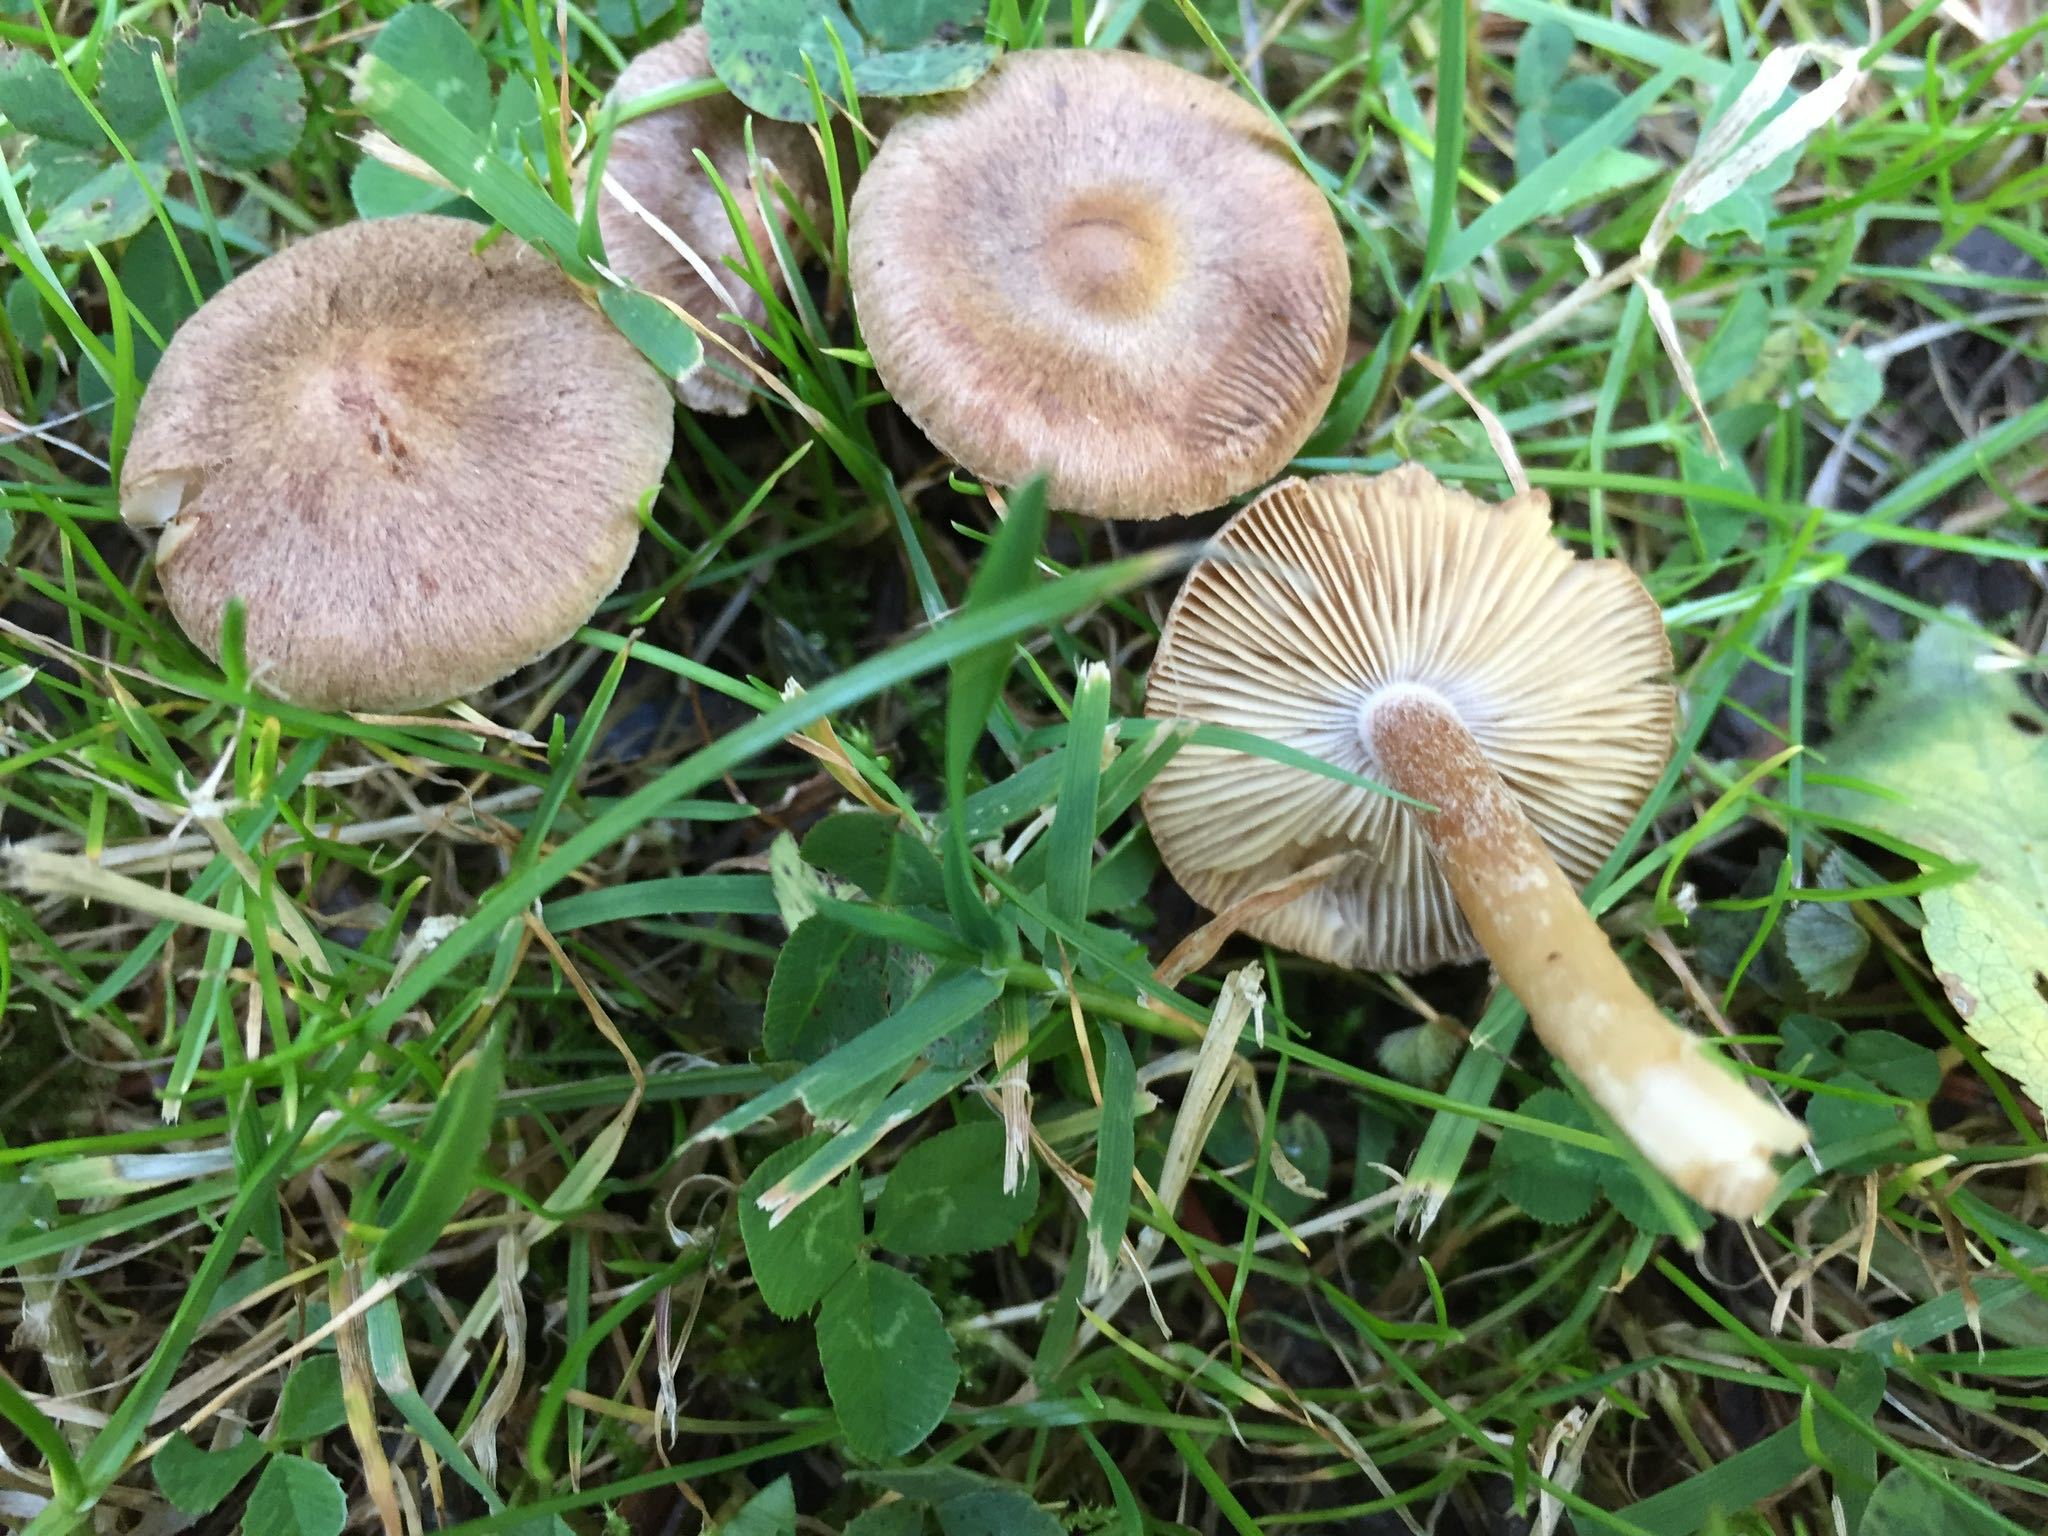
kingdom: Fungi
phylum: Basidiomycota
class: Agaricomycetes
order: Agaricales
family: Inocybaceae
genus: Inocybe
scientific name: Inocybe
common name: trævlhat
